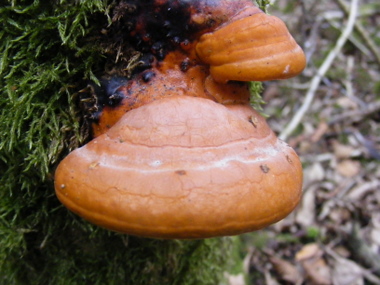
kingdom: Fungi
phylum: Basidiomycota
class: Agaricomycetes
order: Polyporales
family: Fomitopsidaceae
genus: Fomitopsis
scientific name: Fomitopsis pinicola
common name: randbæltet hovporesvamp
